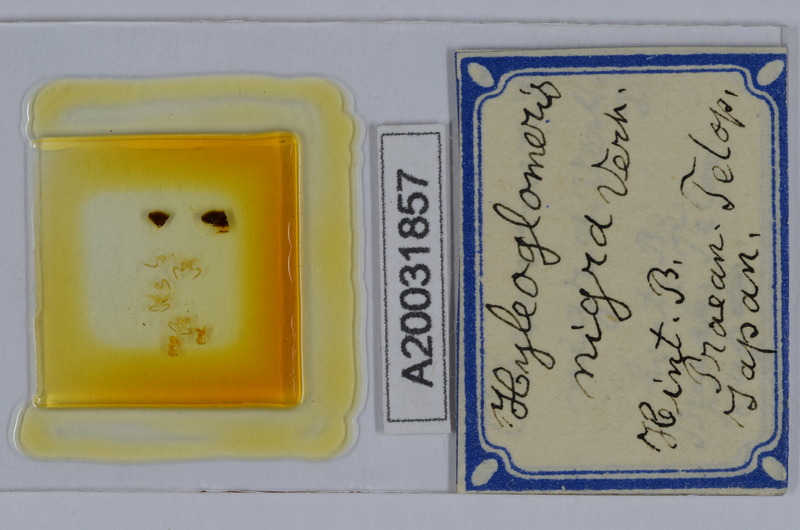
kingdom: Animalia
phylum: Arthropoda
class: Diplopoda
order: Glomerida
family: Glomeridae
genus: Hyleoglomeris
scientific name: Hyleoglomeris nigra
